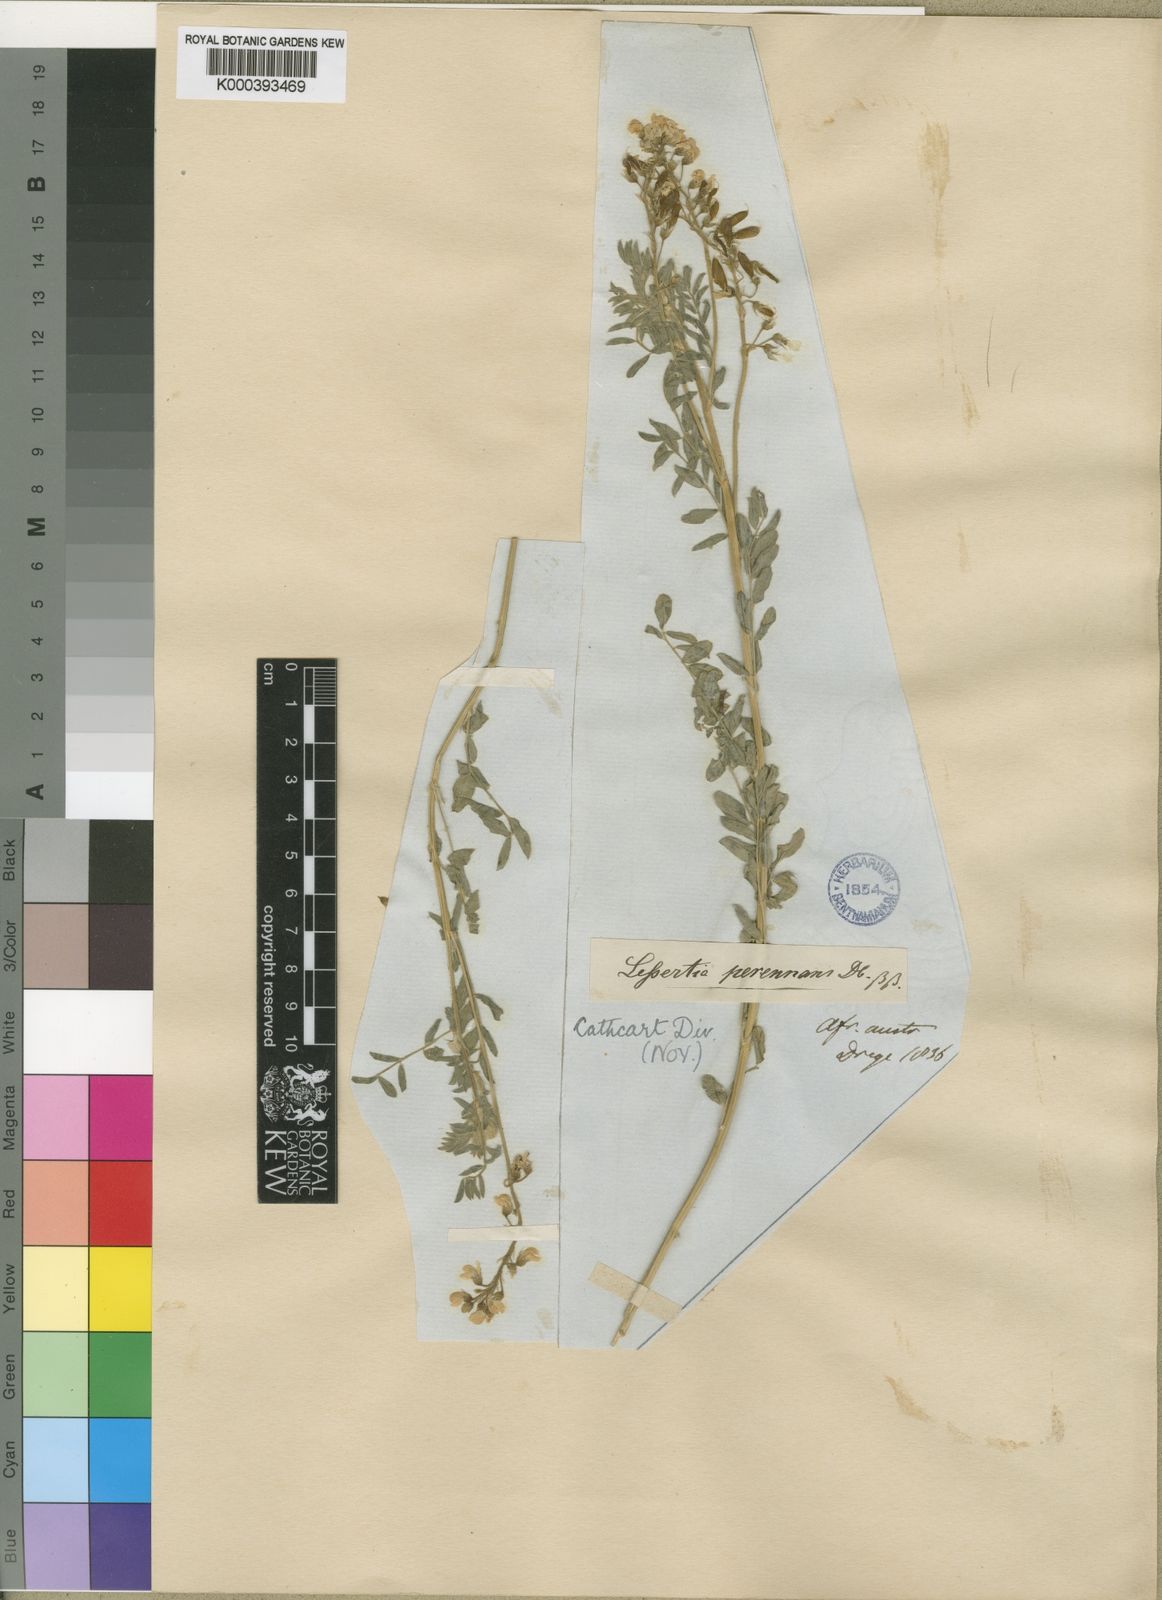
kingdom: Plantae
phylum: Tracheophyta
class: Magnoliopsida
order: Fabales
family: Fabaceae
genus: Lessertia
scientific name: Lessertia perennans
